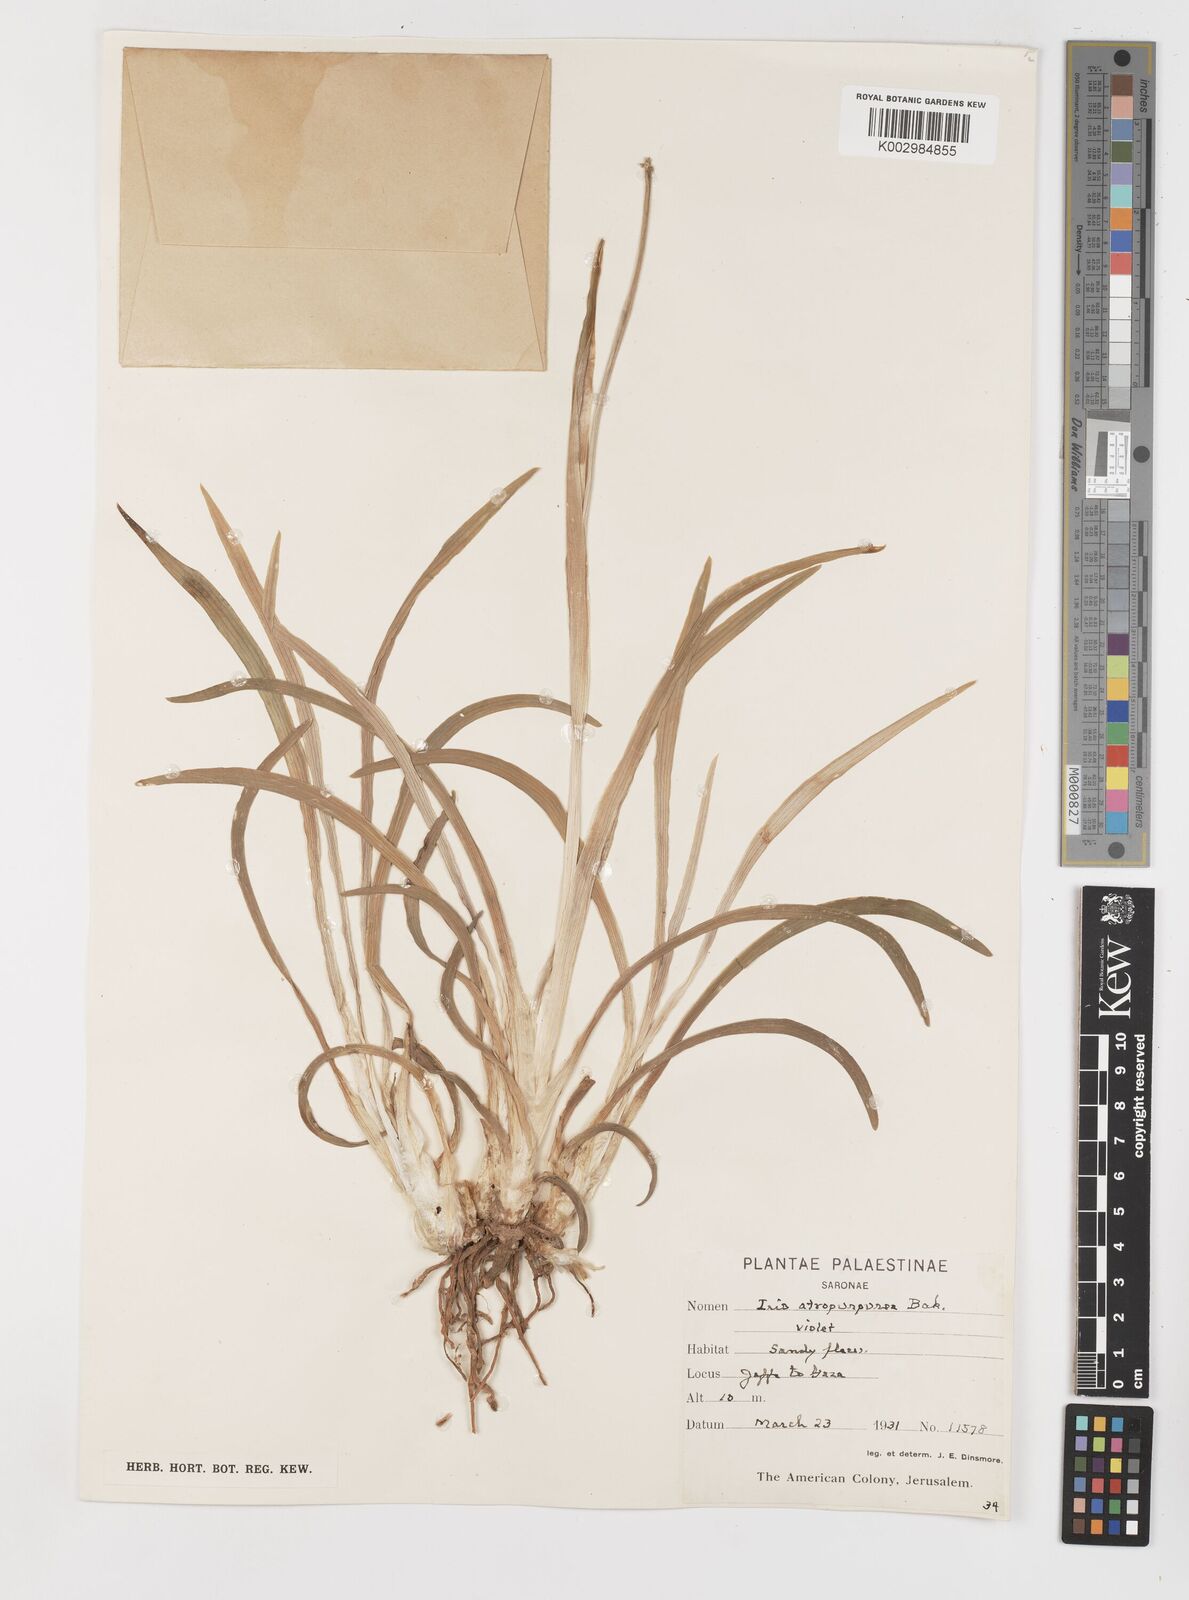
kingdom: Plantae
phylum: Tracheophyta
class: Liliopsida
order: Asparagales
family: Iridaceae
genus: Iris
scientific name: Iris atropurpurea
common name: Coastal iris
